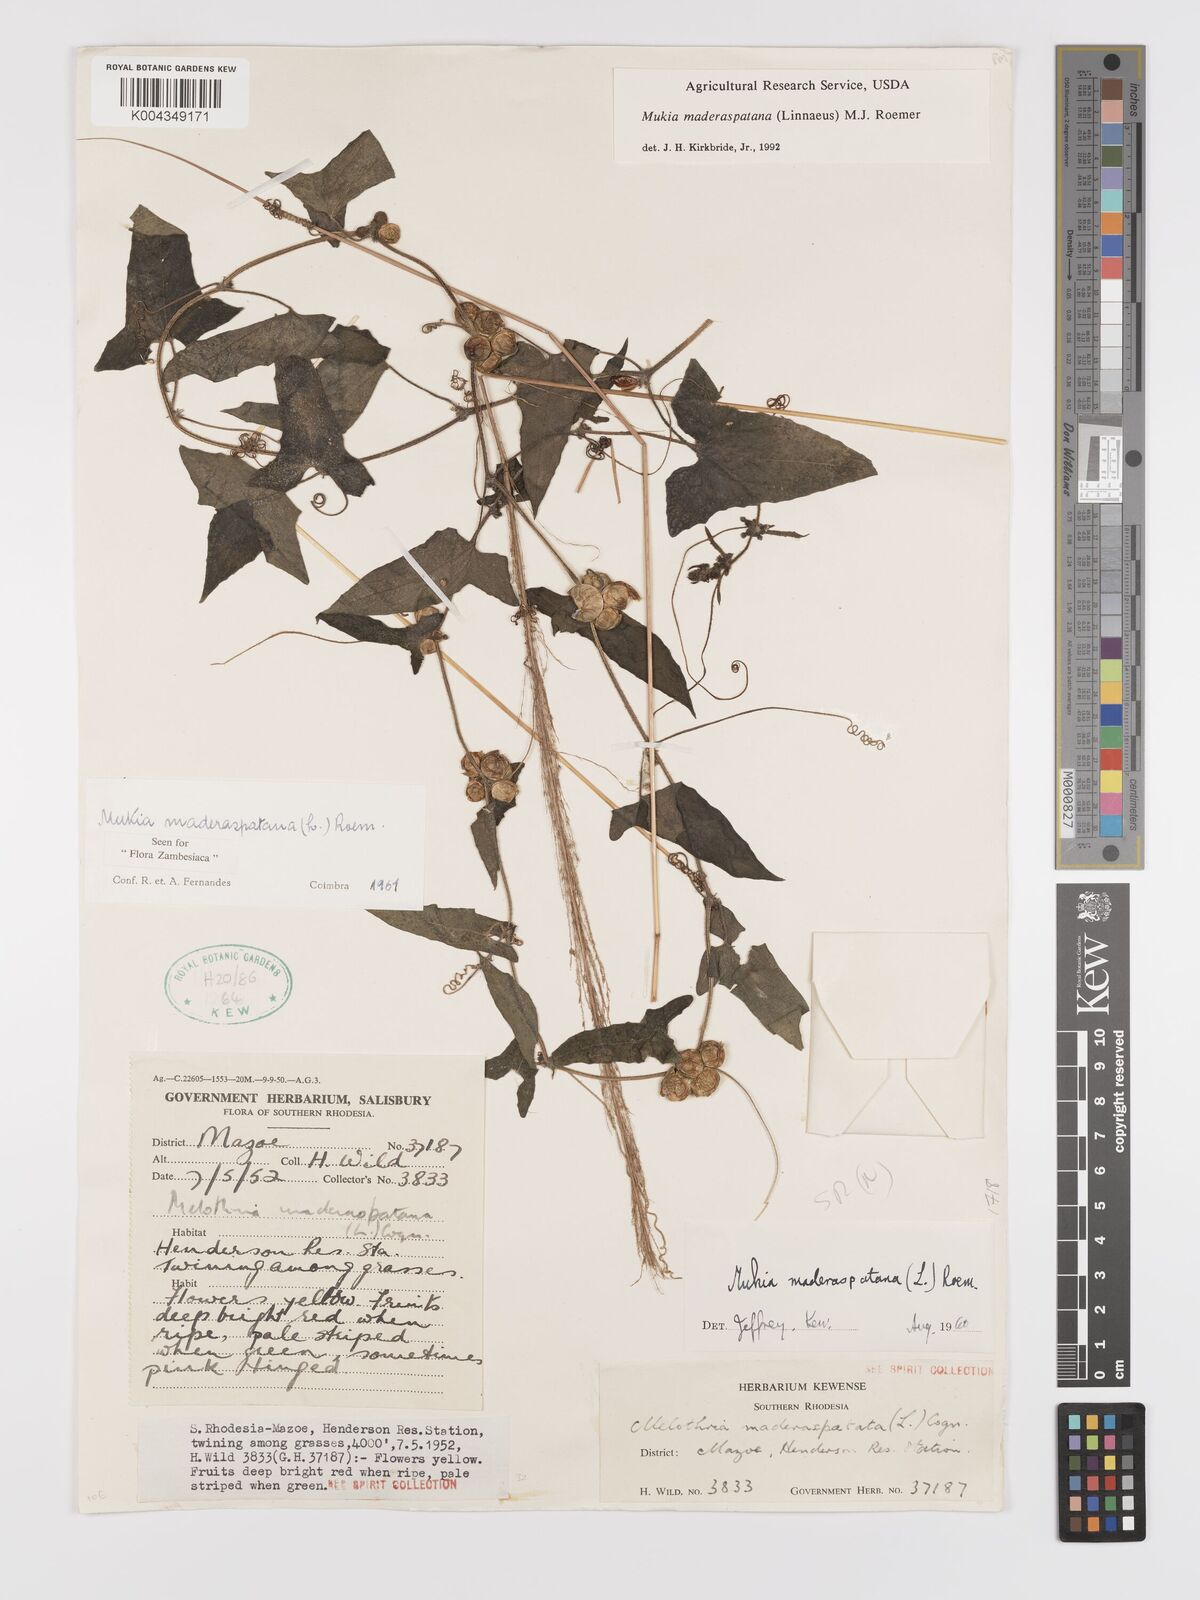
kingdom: Plantae
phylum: Tracheophyta
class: Magnoliopsida
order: Cucurbitales
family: Cucurbitaceae
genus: Cucumis
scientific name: Cucumis maderaspatanus
